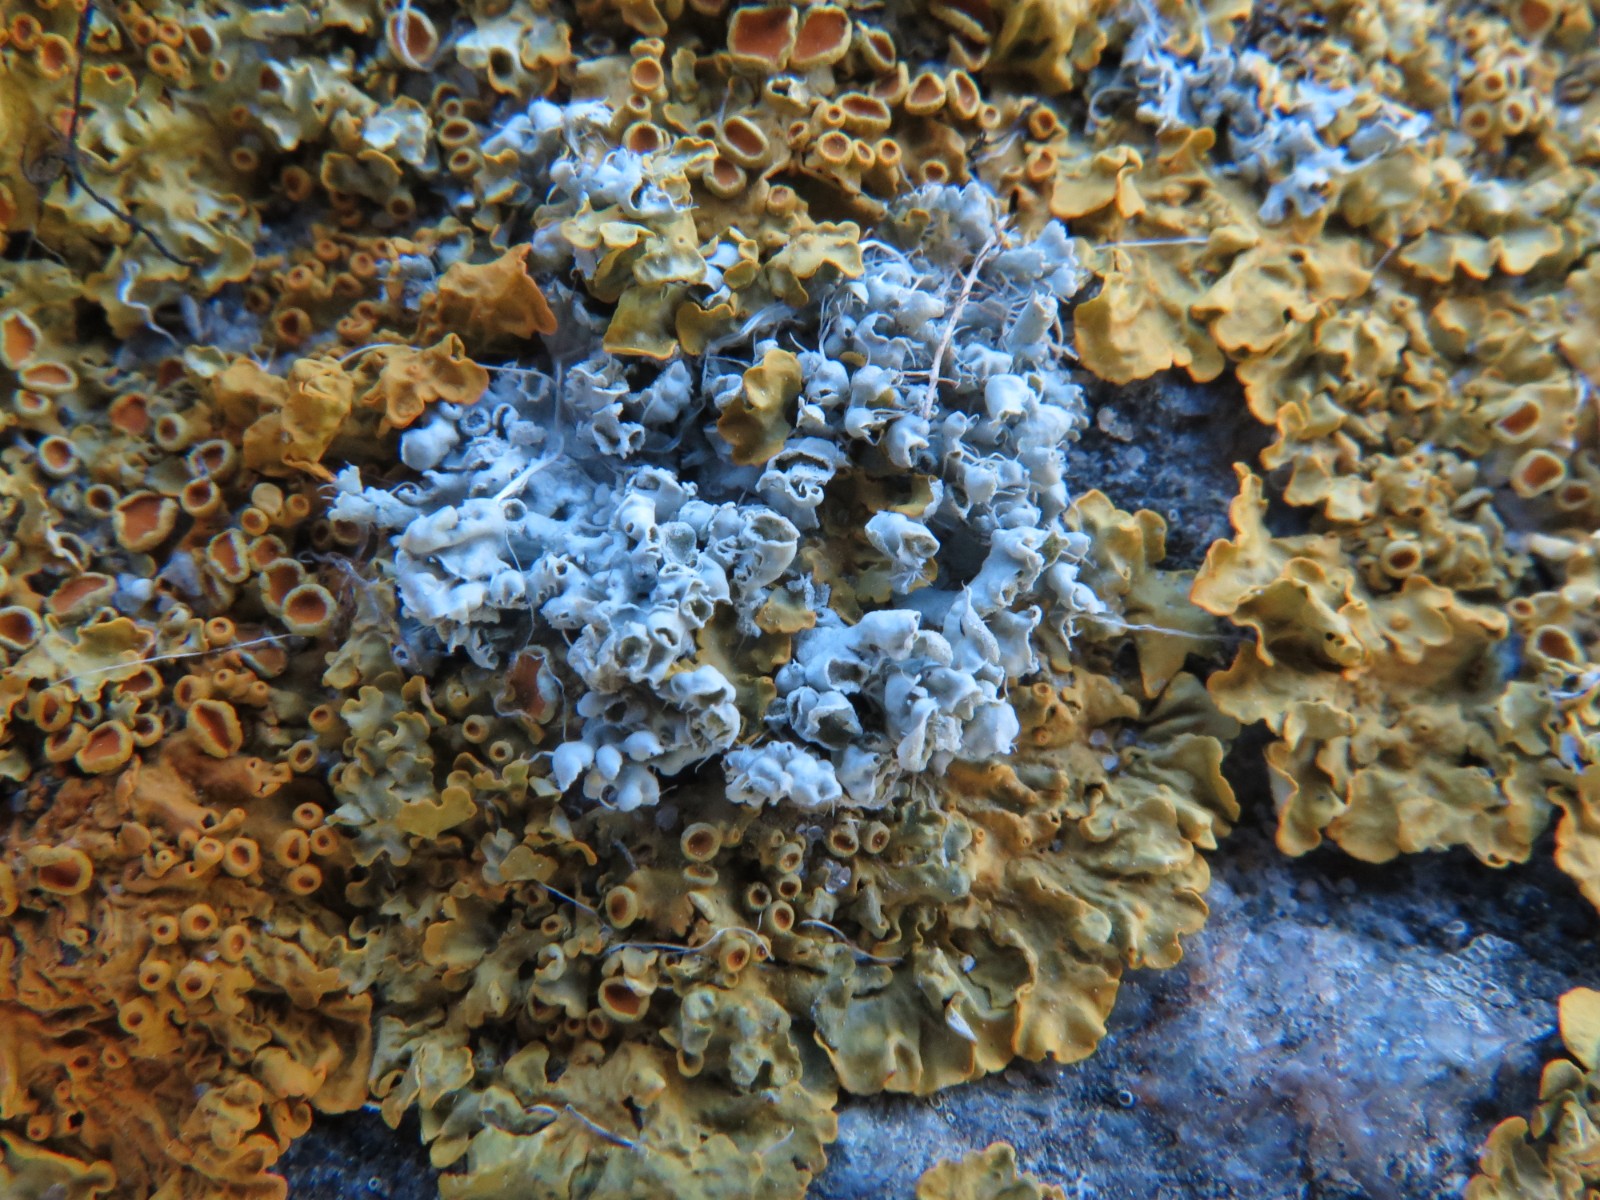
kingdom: Fungi
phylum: Ascomycota
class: Lecanoromycetes
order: Caliciales
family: Physciaceae
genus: Physcia
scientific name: Physcia adscendens
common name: hætte-rosetlav
